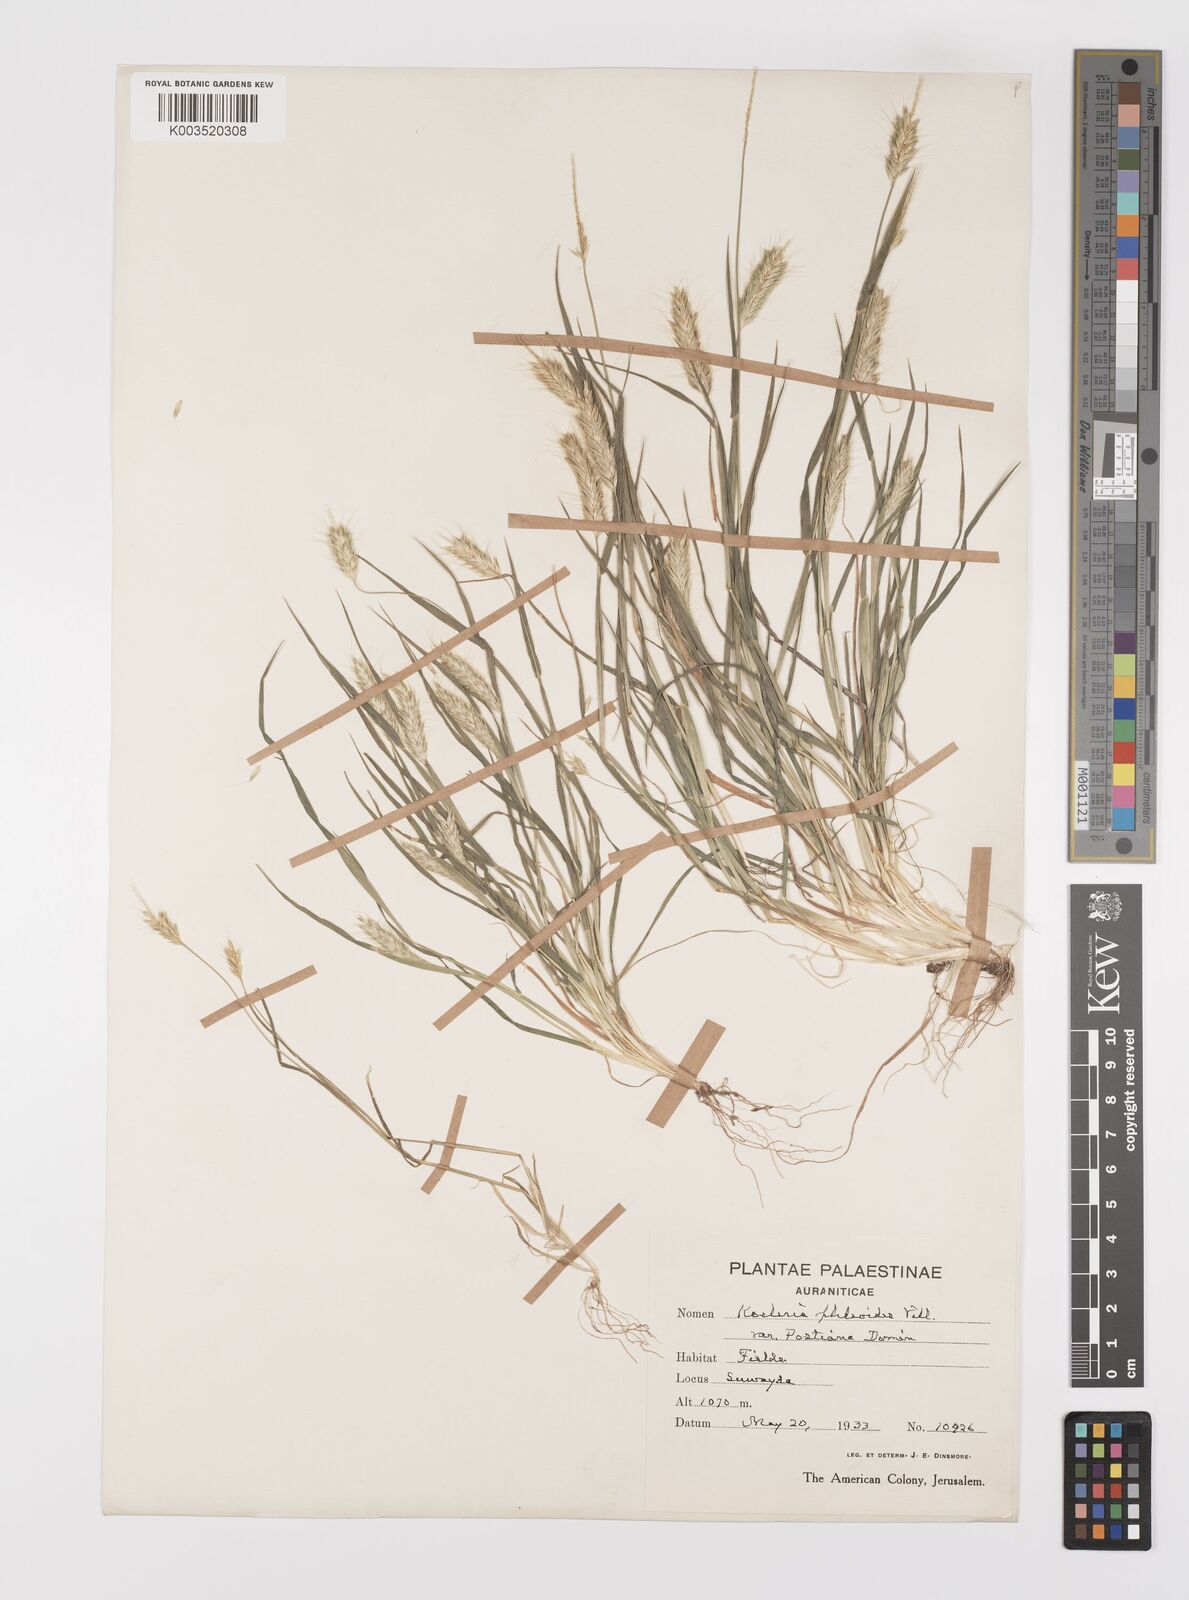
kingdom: Plantae
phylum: Tracheophyta
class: Liliopsida
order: Poales
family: Poaceae
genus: Alopecurus
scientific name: Alopecurus utriculatus
